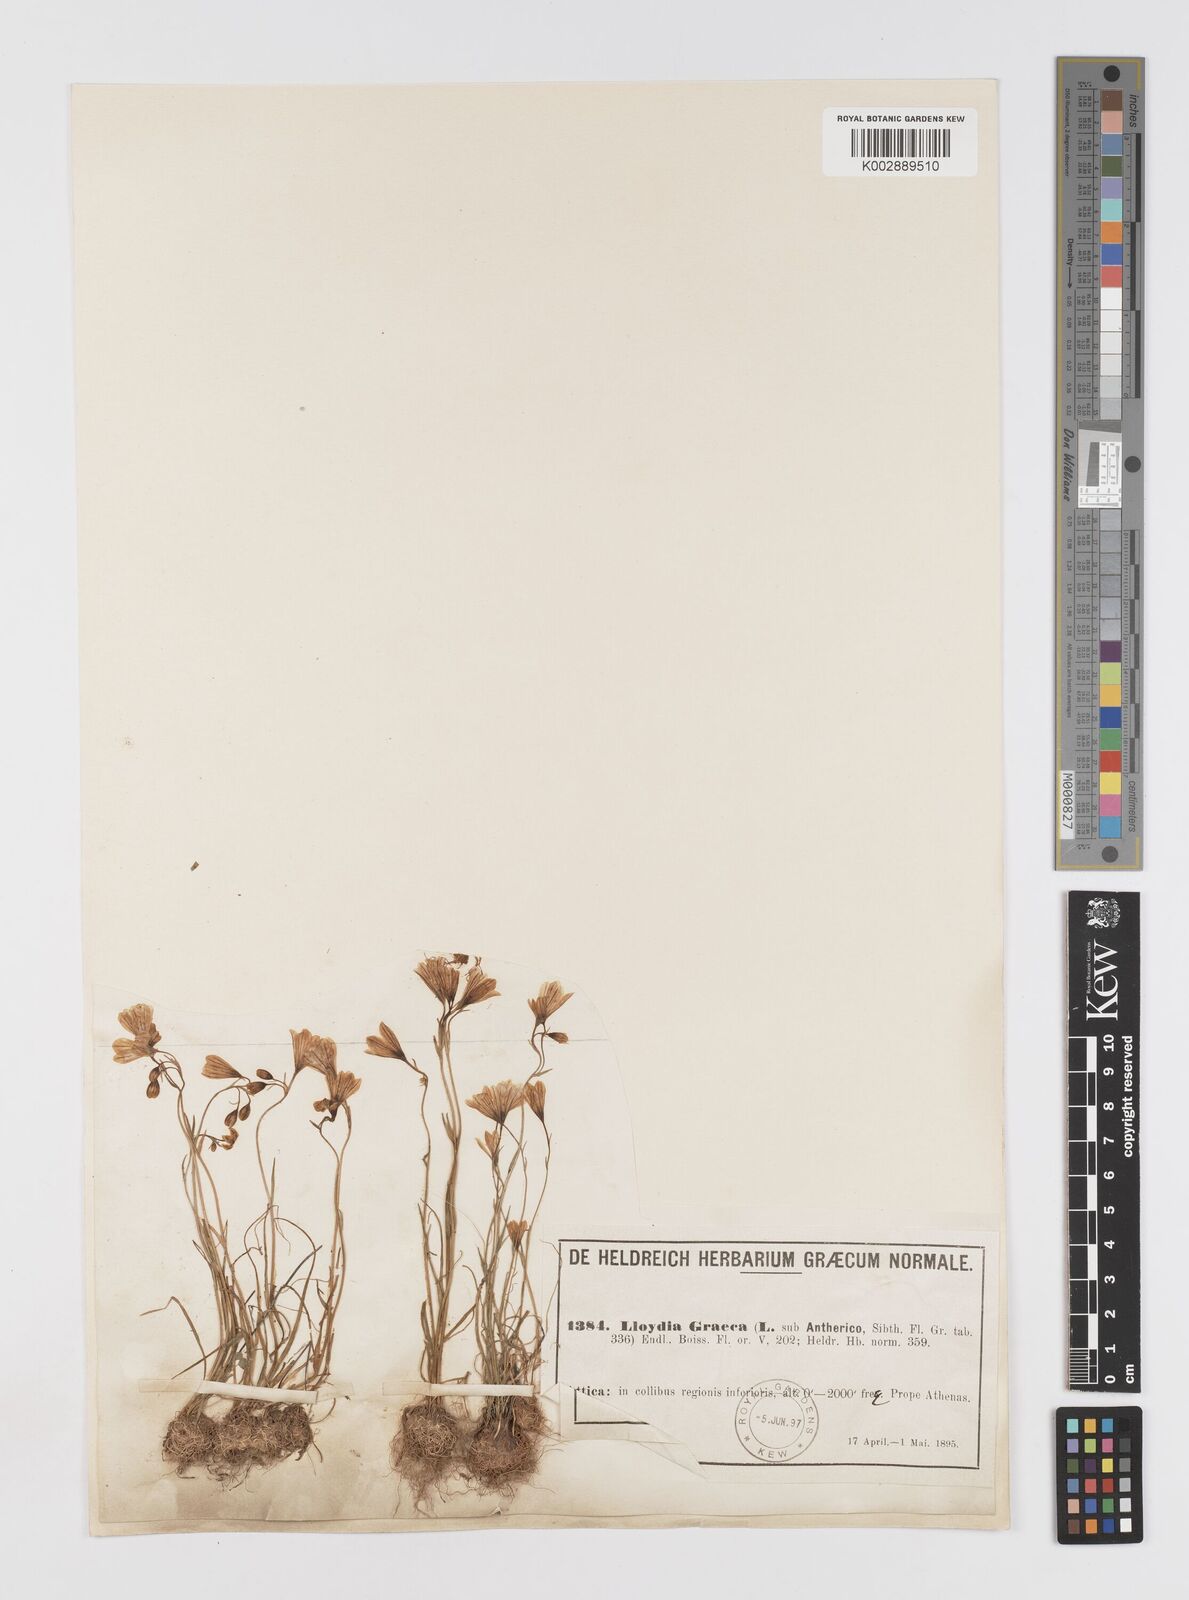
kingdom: Plantae
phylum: Tracheophyta
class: Liliopsida
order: Liliales
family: Liliaceae
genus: Gagea
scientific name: Gagea graeca
